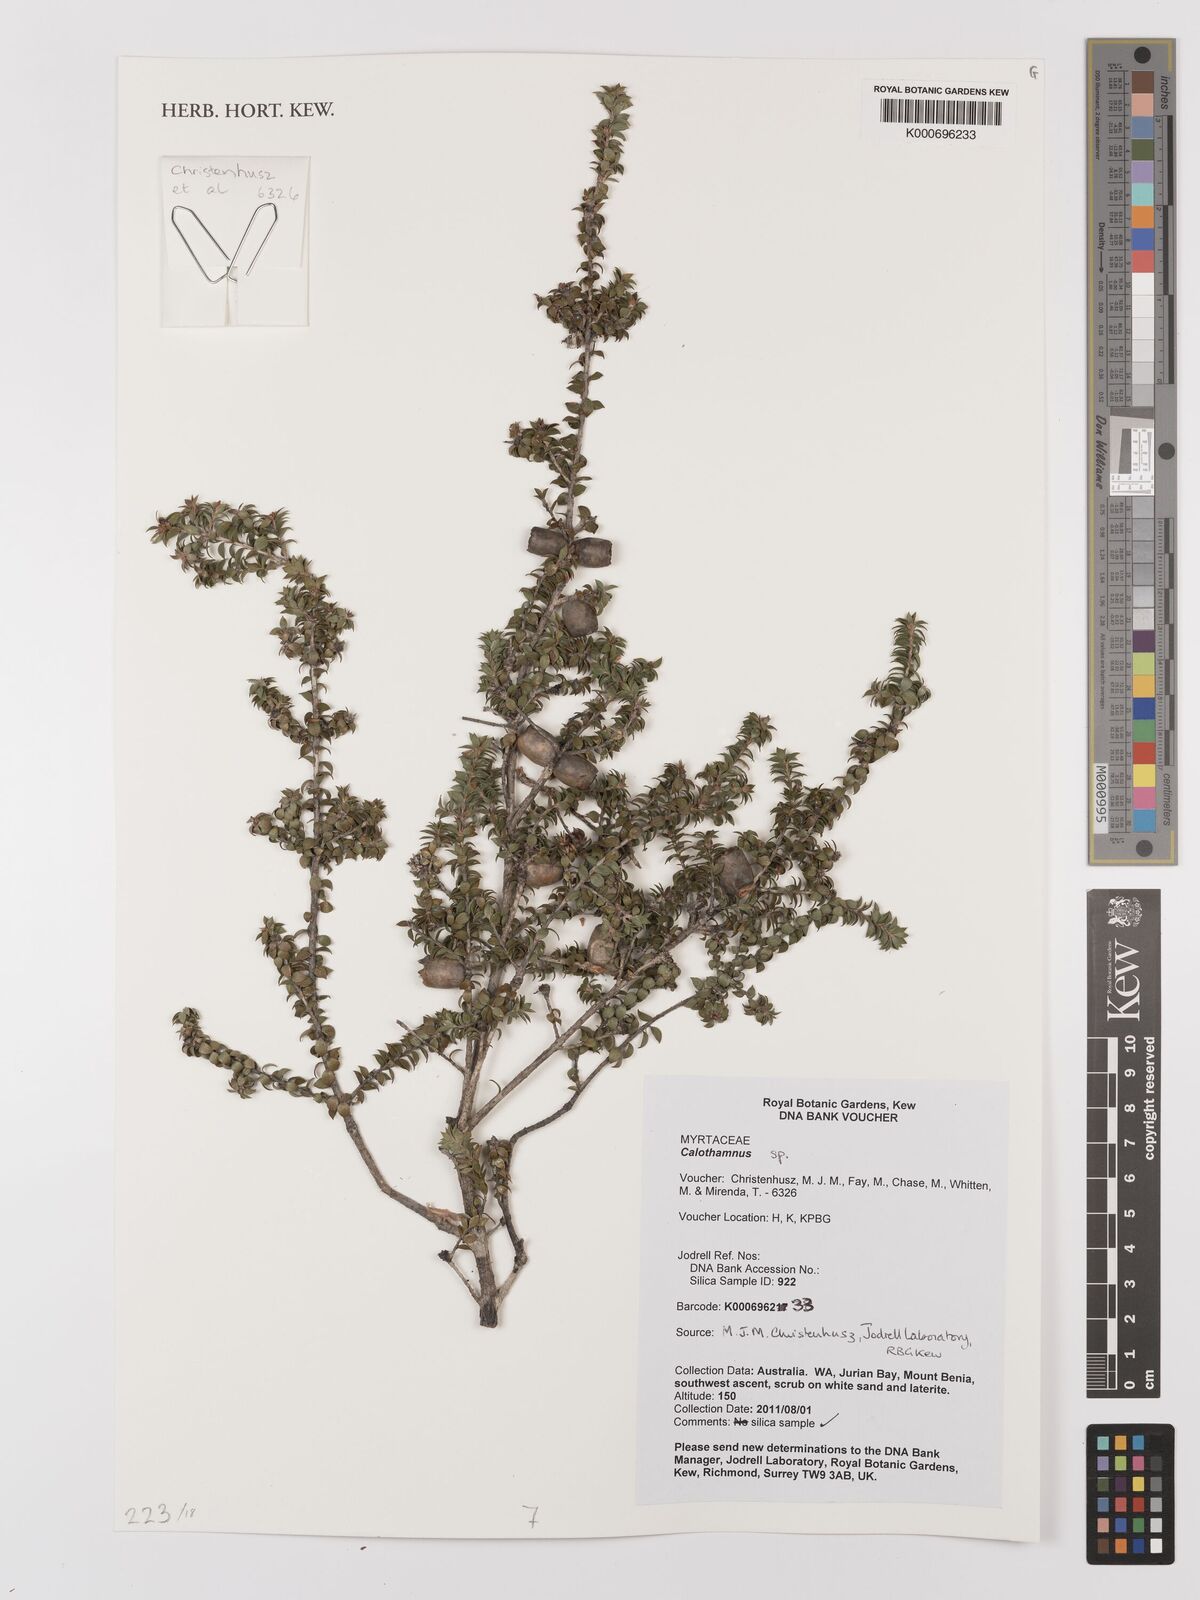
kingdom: Plantae
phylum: Tracheophyta
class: Magnoliopsida
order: Myrtales
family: Myrtaceae
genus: Melaleuca
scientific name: Melaleuca quadrifida
